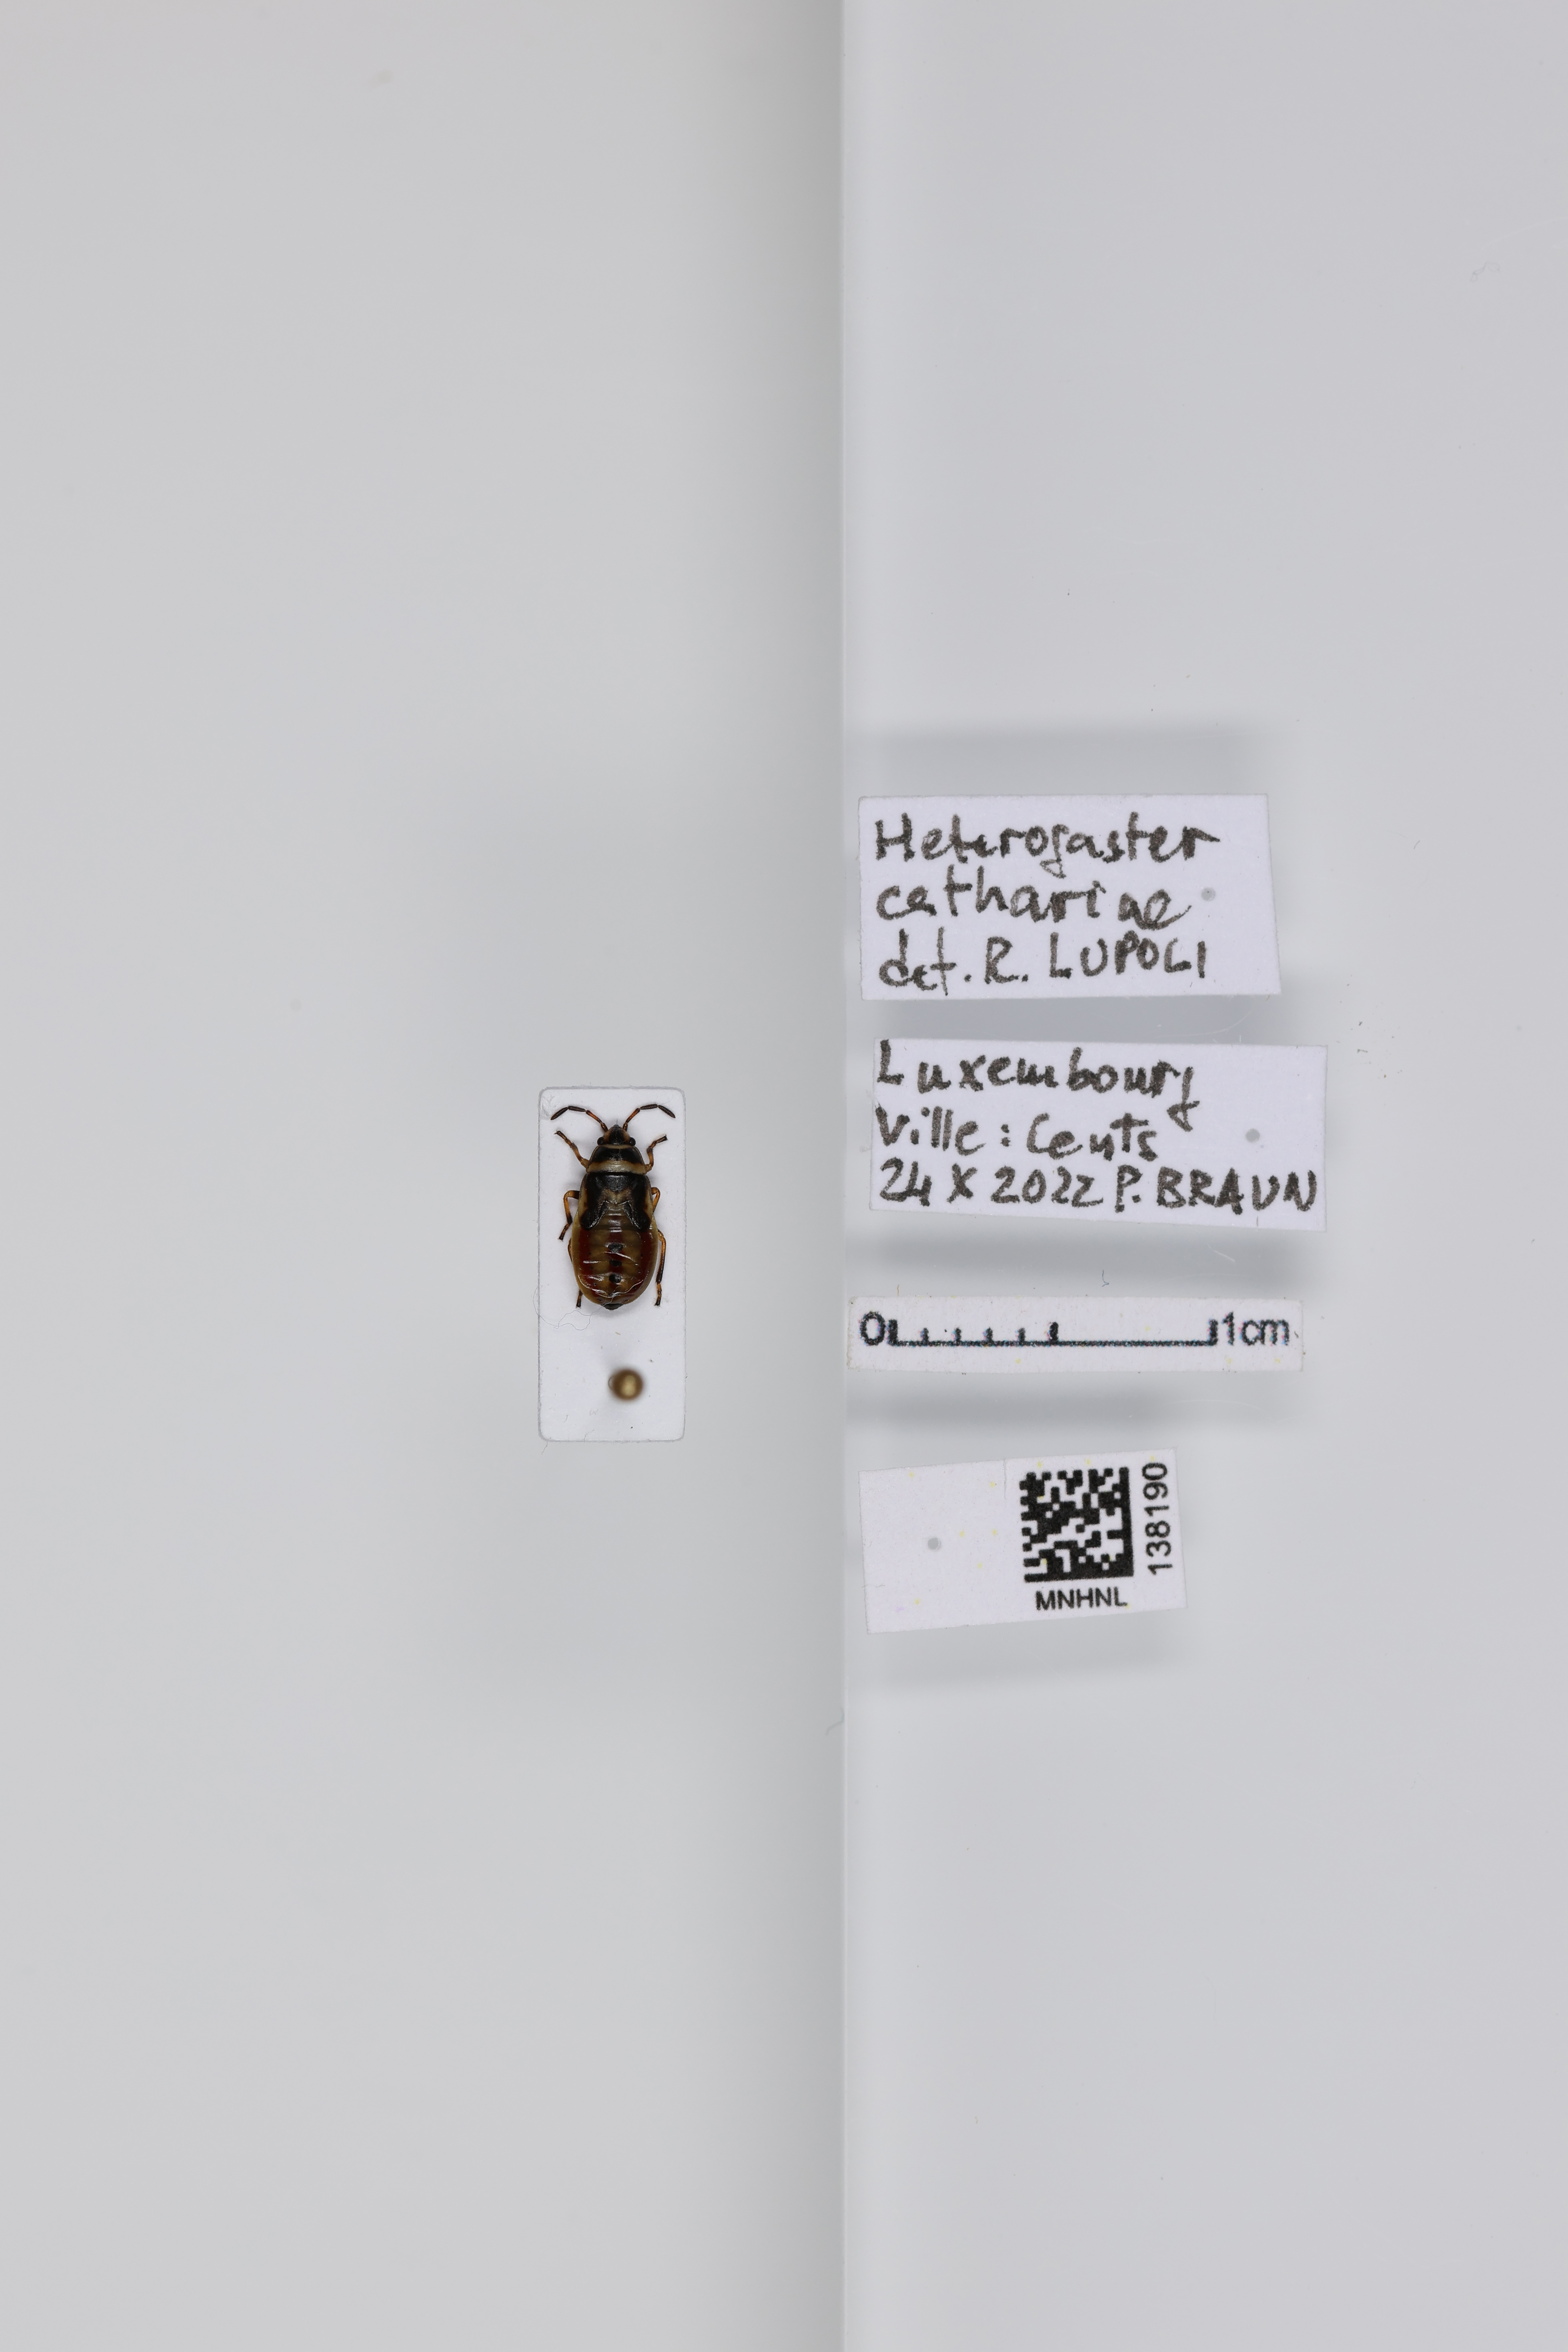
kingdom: Animalia
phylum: Arthropoda
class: Insecta
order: Hemiptera
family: Heterogastridae
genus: Heterogaster
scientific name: Heterogaster cathariae
